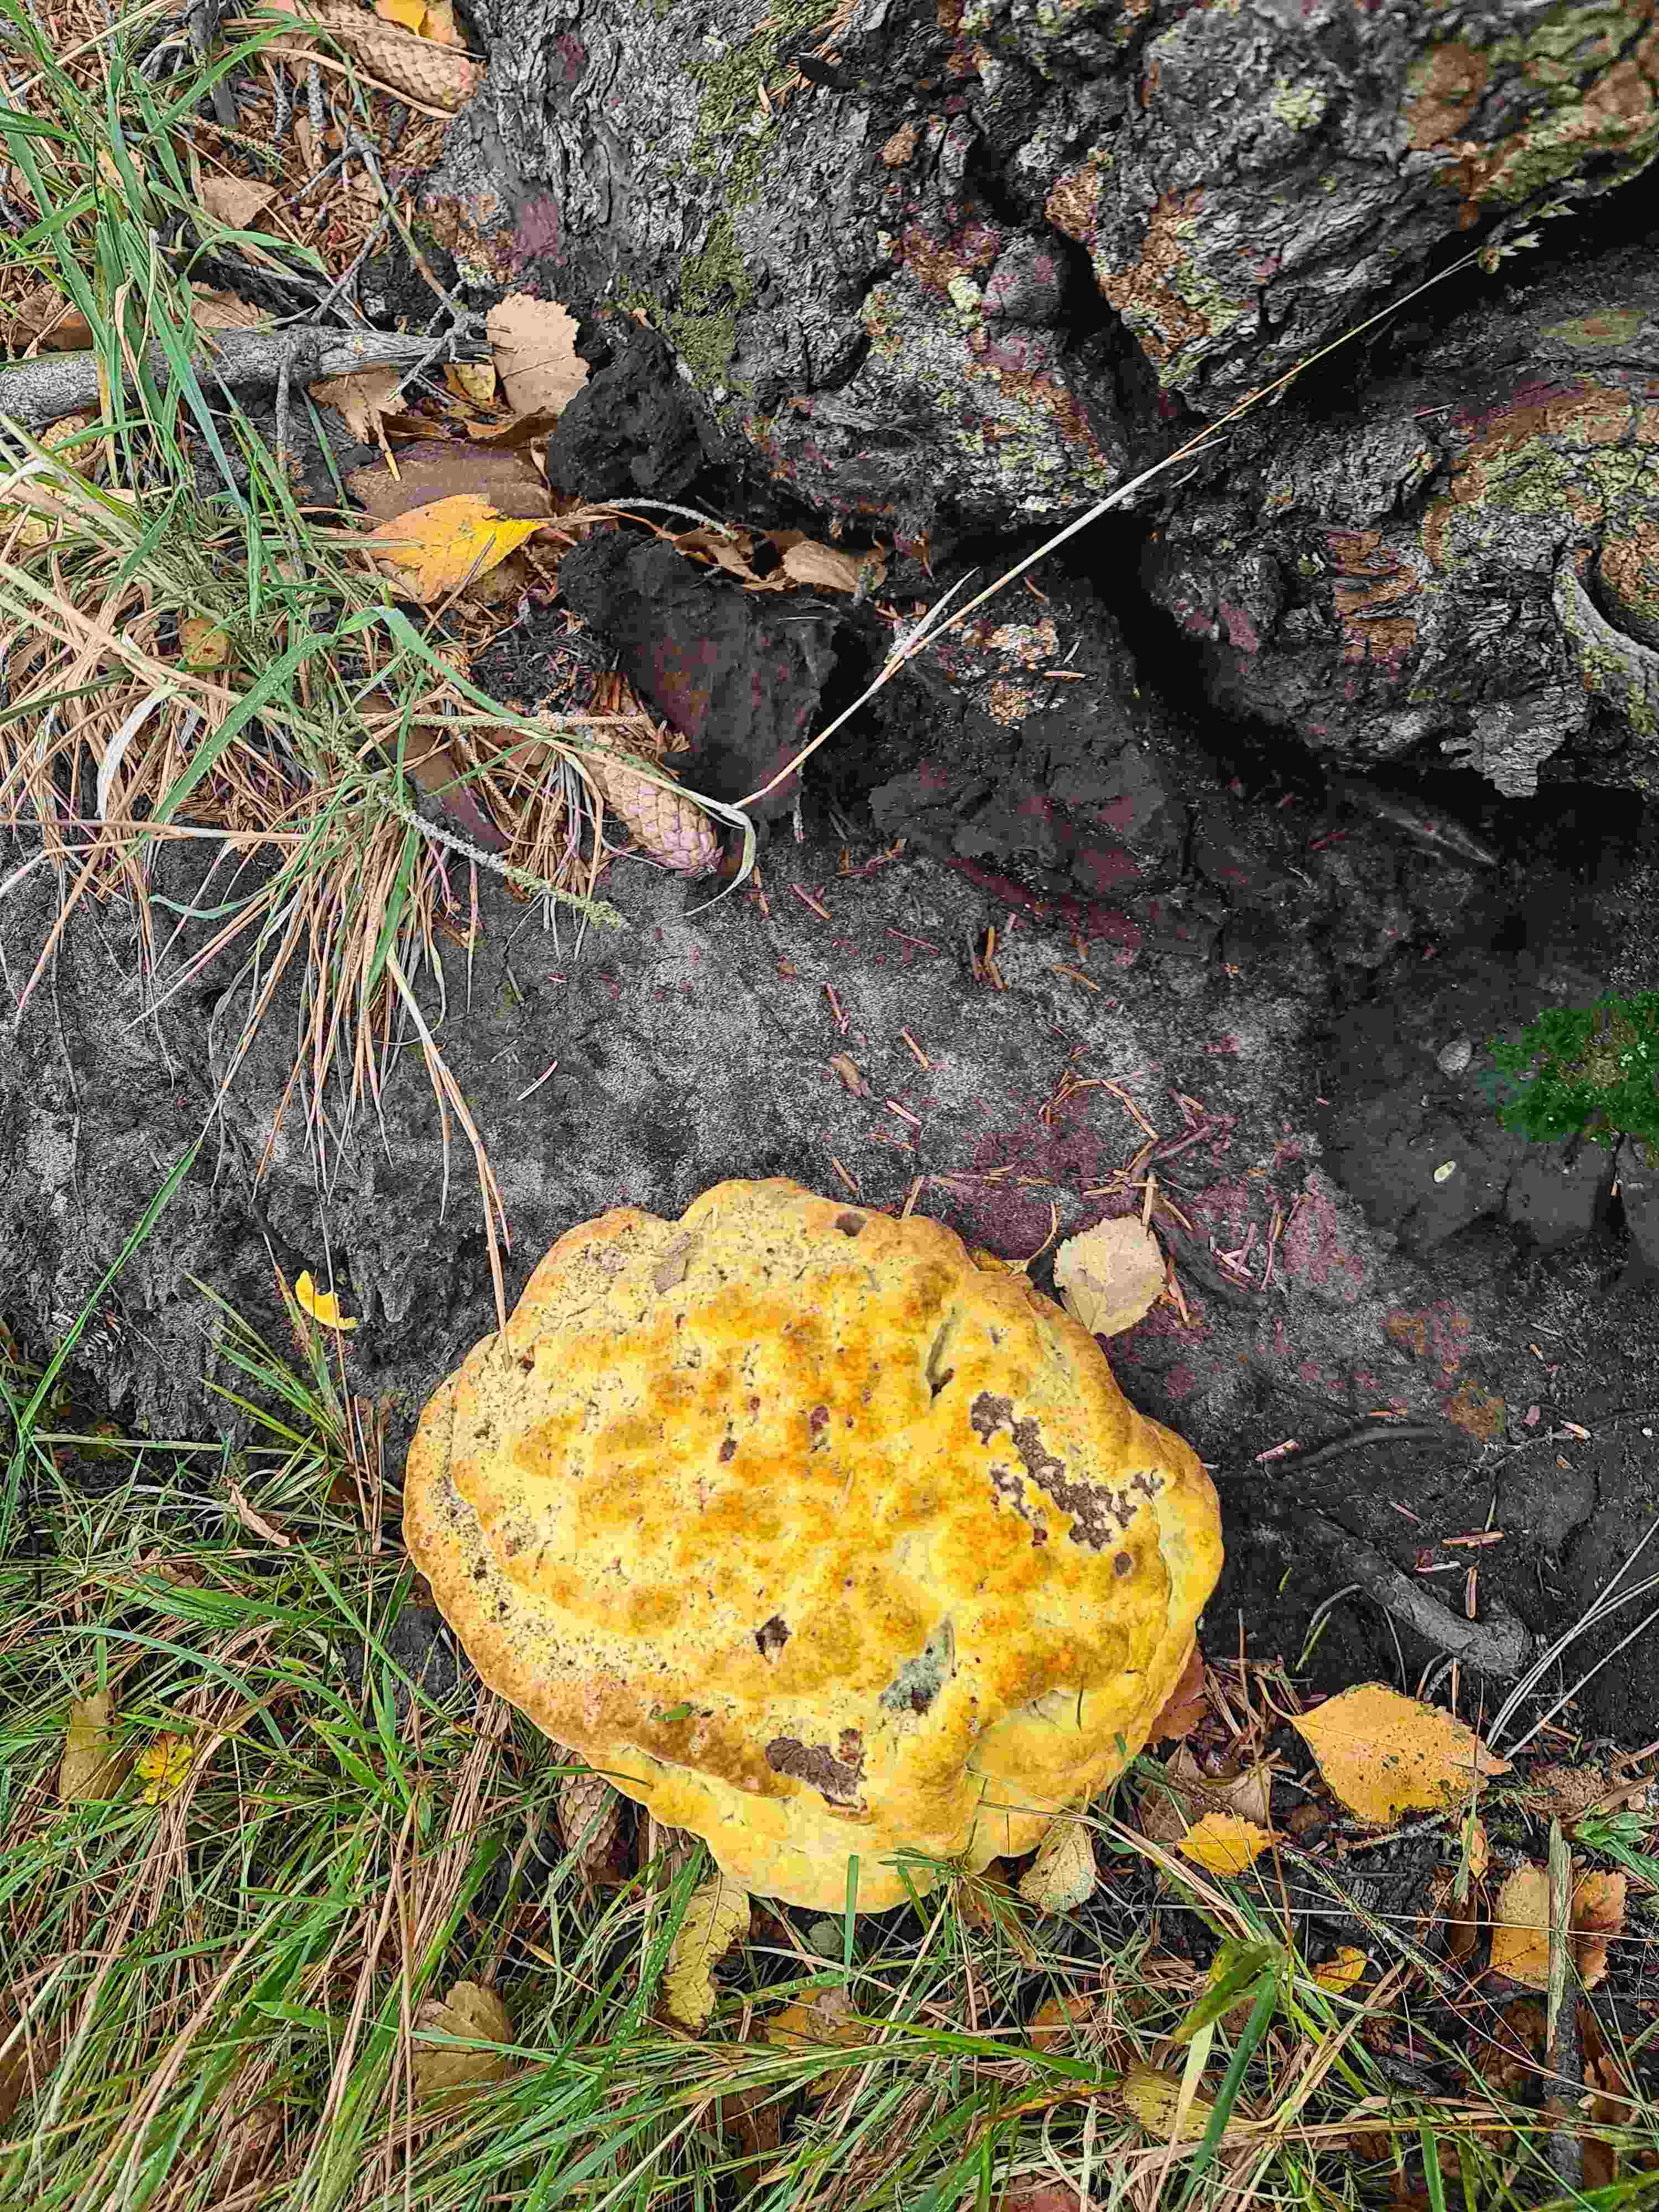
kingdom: Fungi
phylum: Basidiomycota
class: Agaricomycetes
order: Polyporales
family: Laetiporaceae
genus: Phaeolus
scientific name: Phaeolus schweinitzii
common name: brunporesvamp
